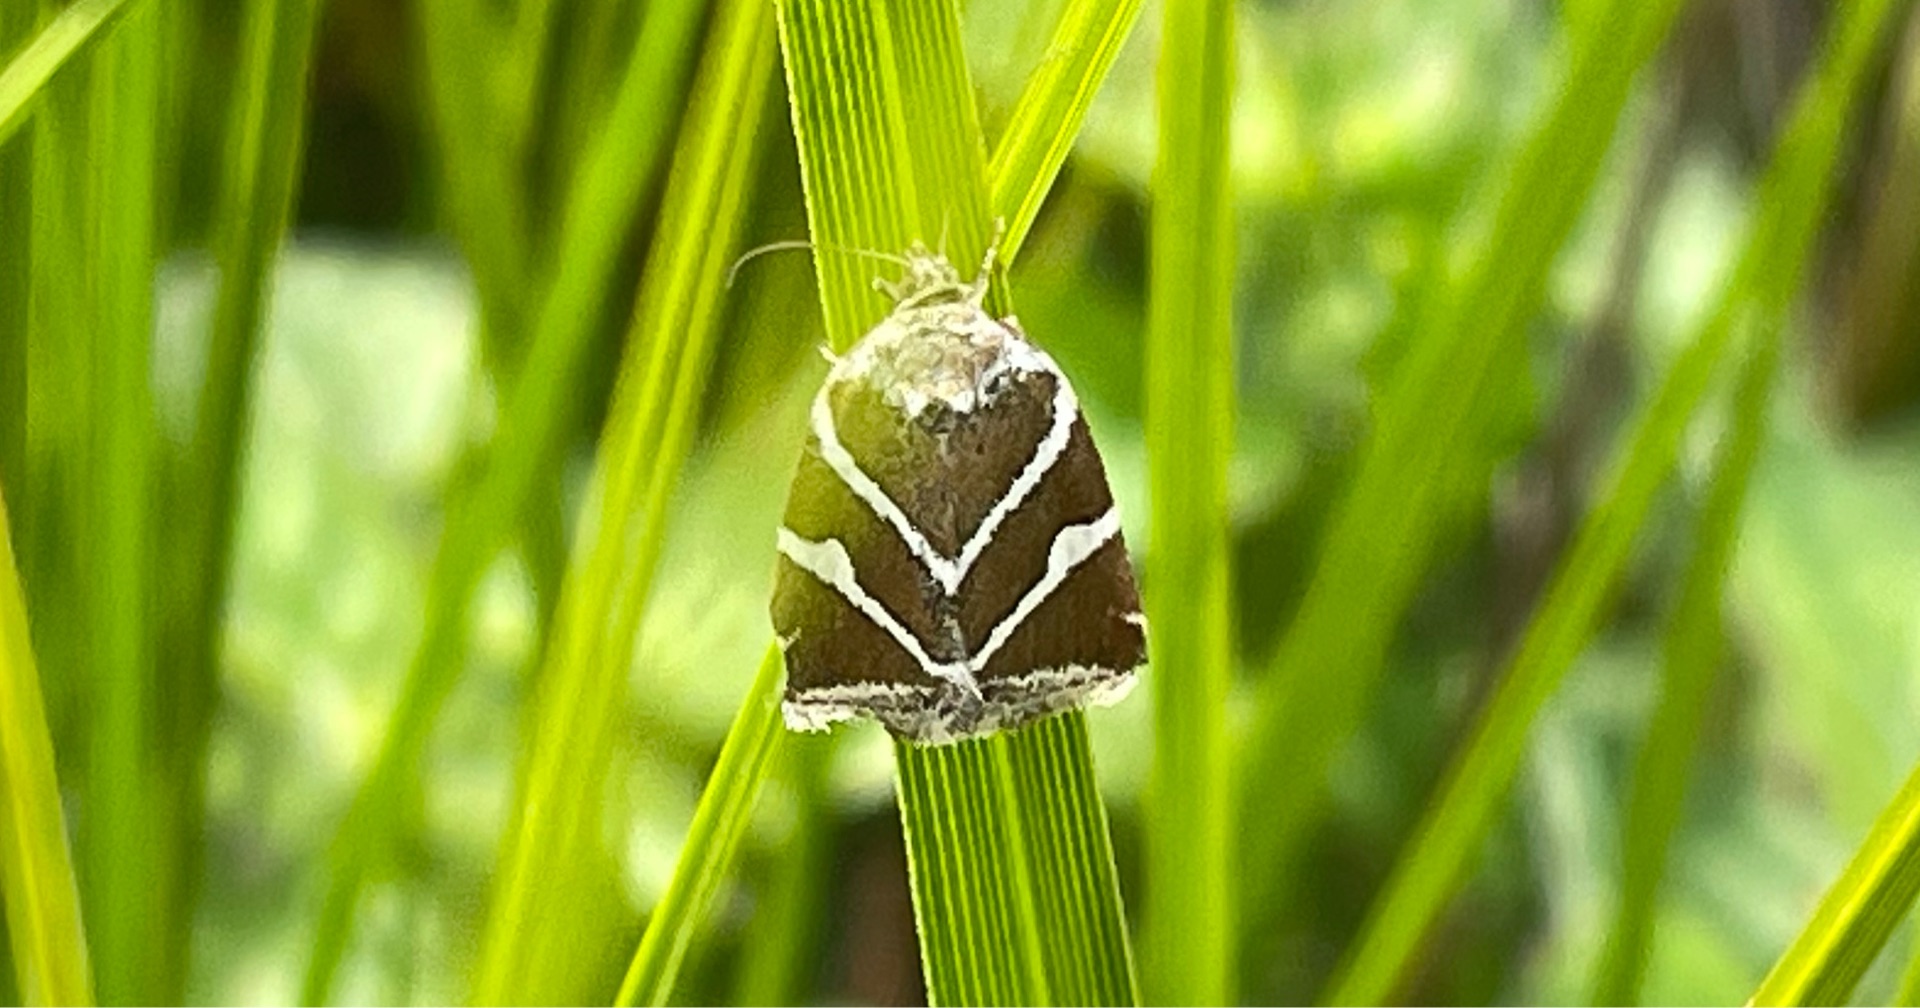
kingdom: Animalia
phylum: Arthropoda
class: Insecta
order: Lepidoptera
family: Noctuidae
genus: Deltote
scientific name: Deltote bankiana
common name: Tvebånd-dagugle
